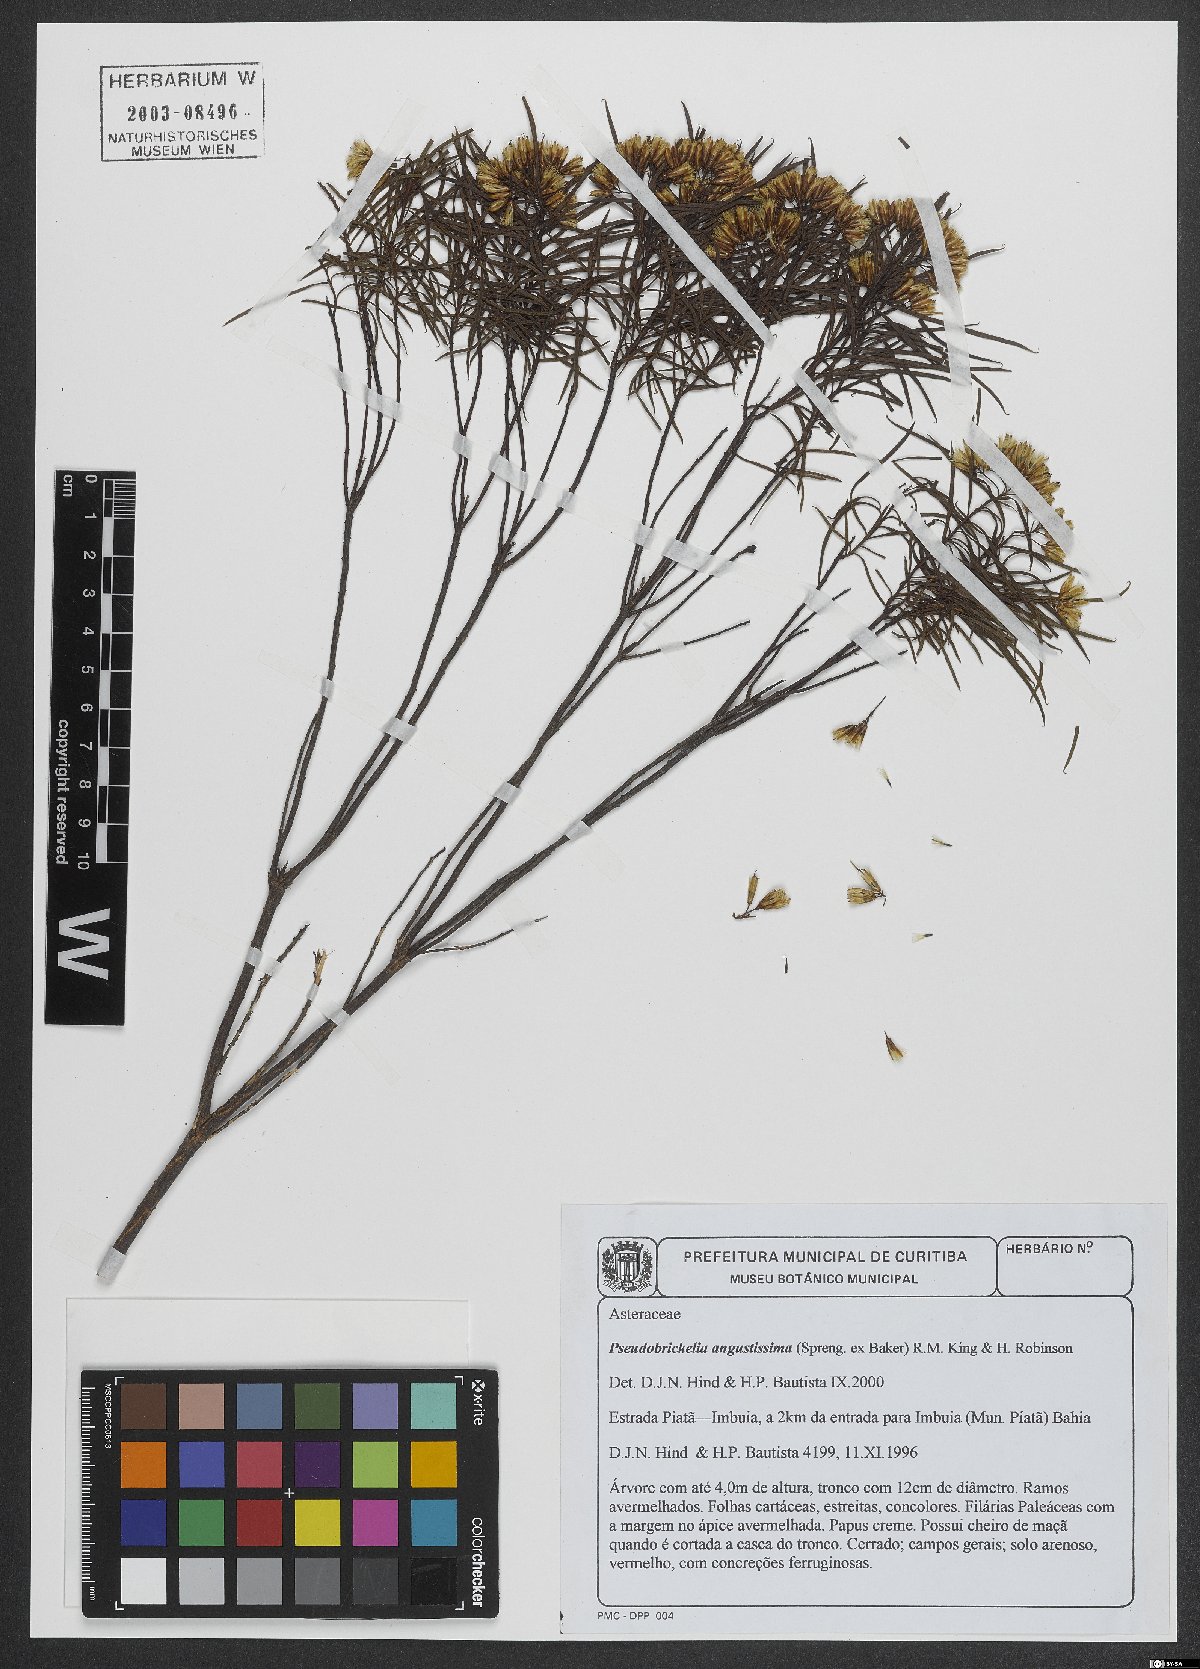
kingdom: Plantae
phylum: Tracheophyta
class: Magnoliopsida
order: Asterales
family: Asteraceae
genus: Pseudobrickellia
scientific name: Pseudobrickellia angustissima
